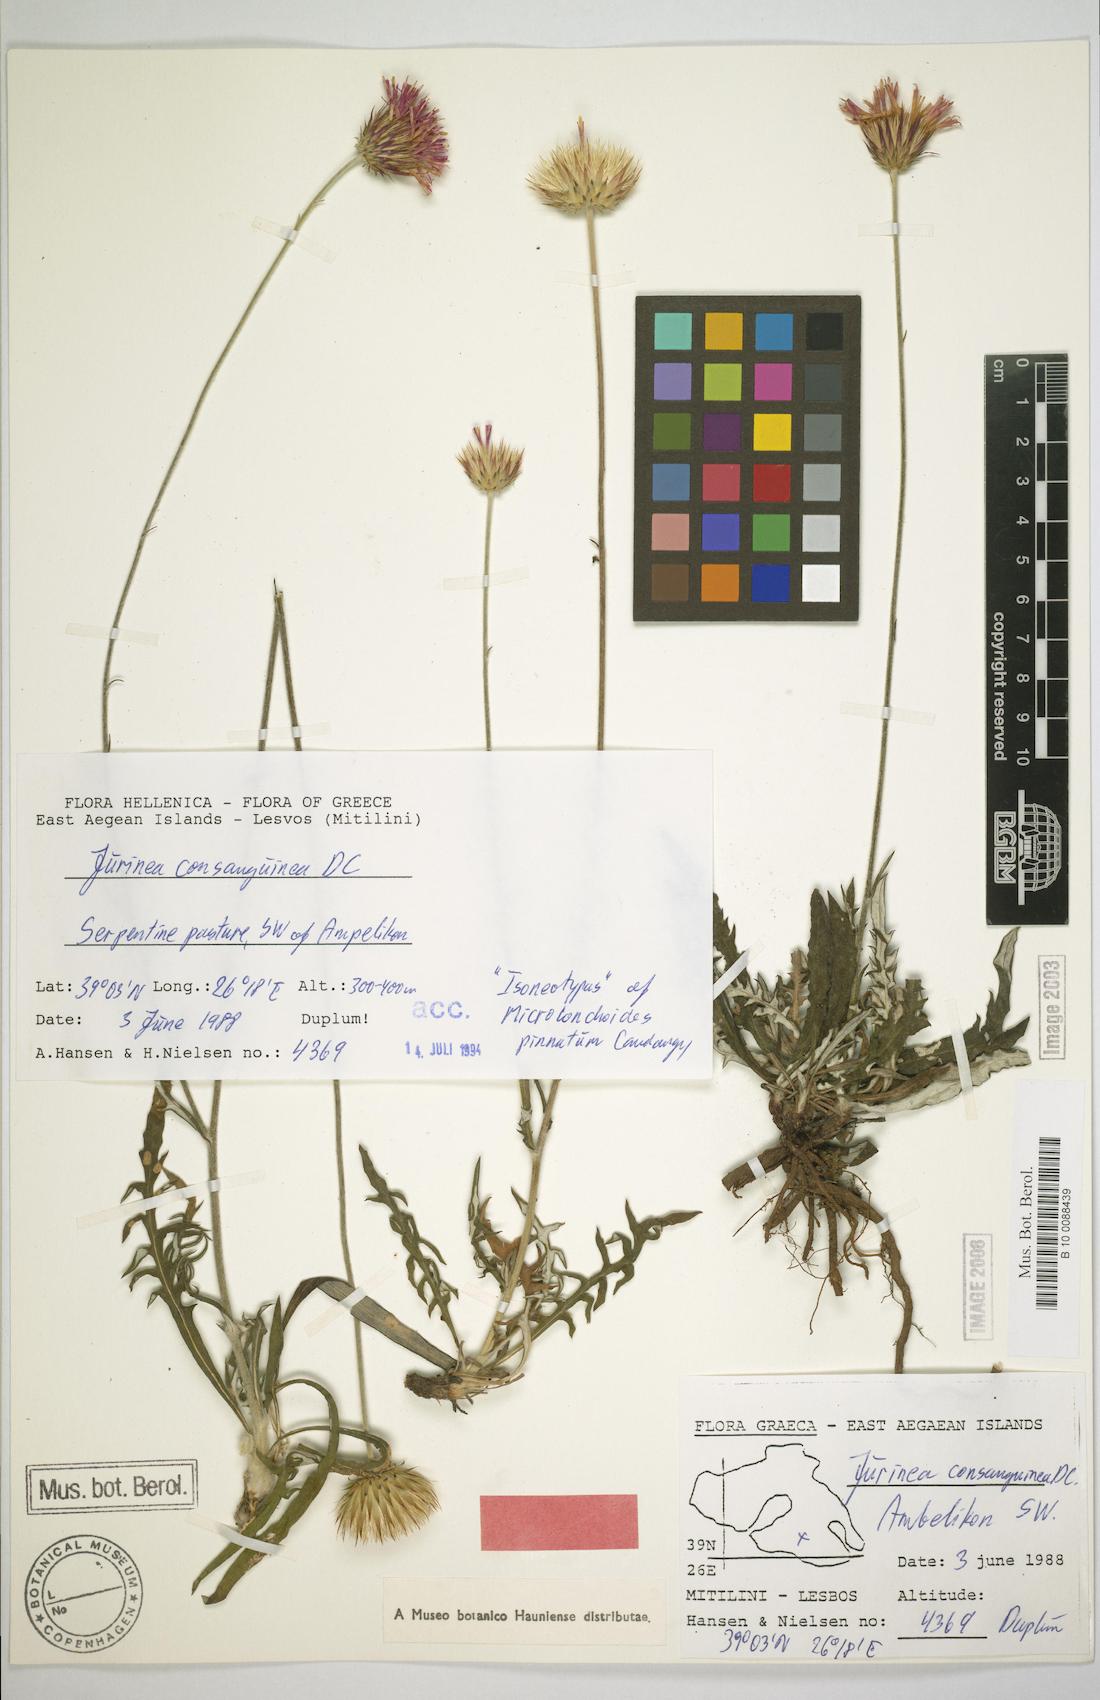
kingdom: Plantae
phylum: Tracheophyta
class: Magnoliopsida
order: Asterales
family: Asteraceae
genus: Jurinea
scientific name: Jurinea consanguinea
